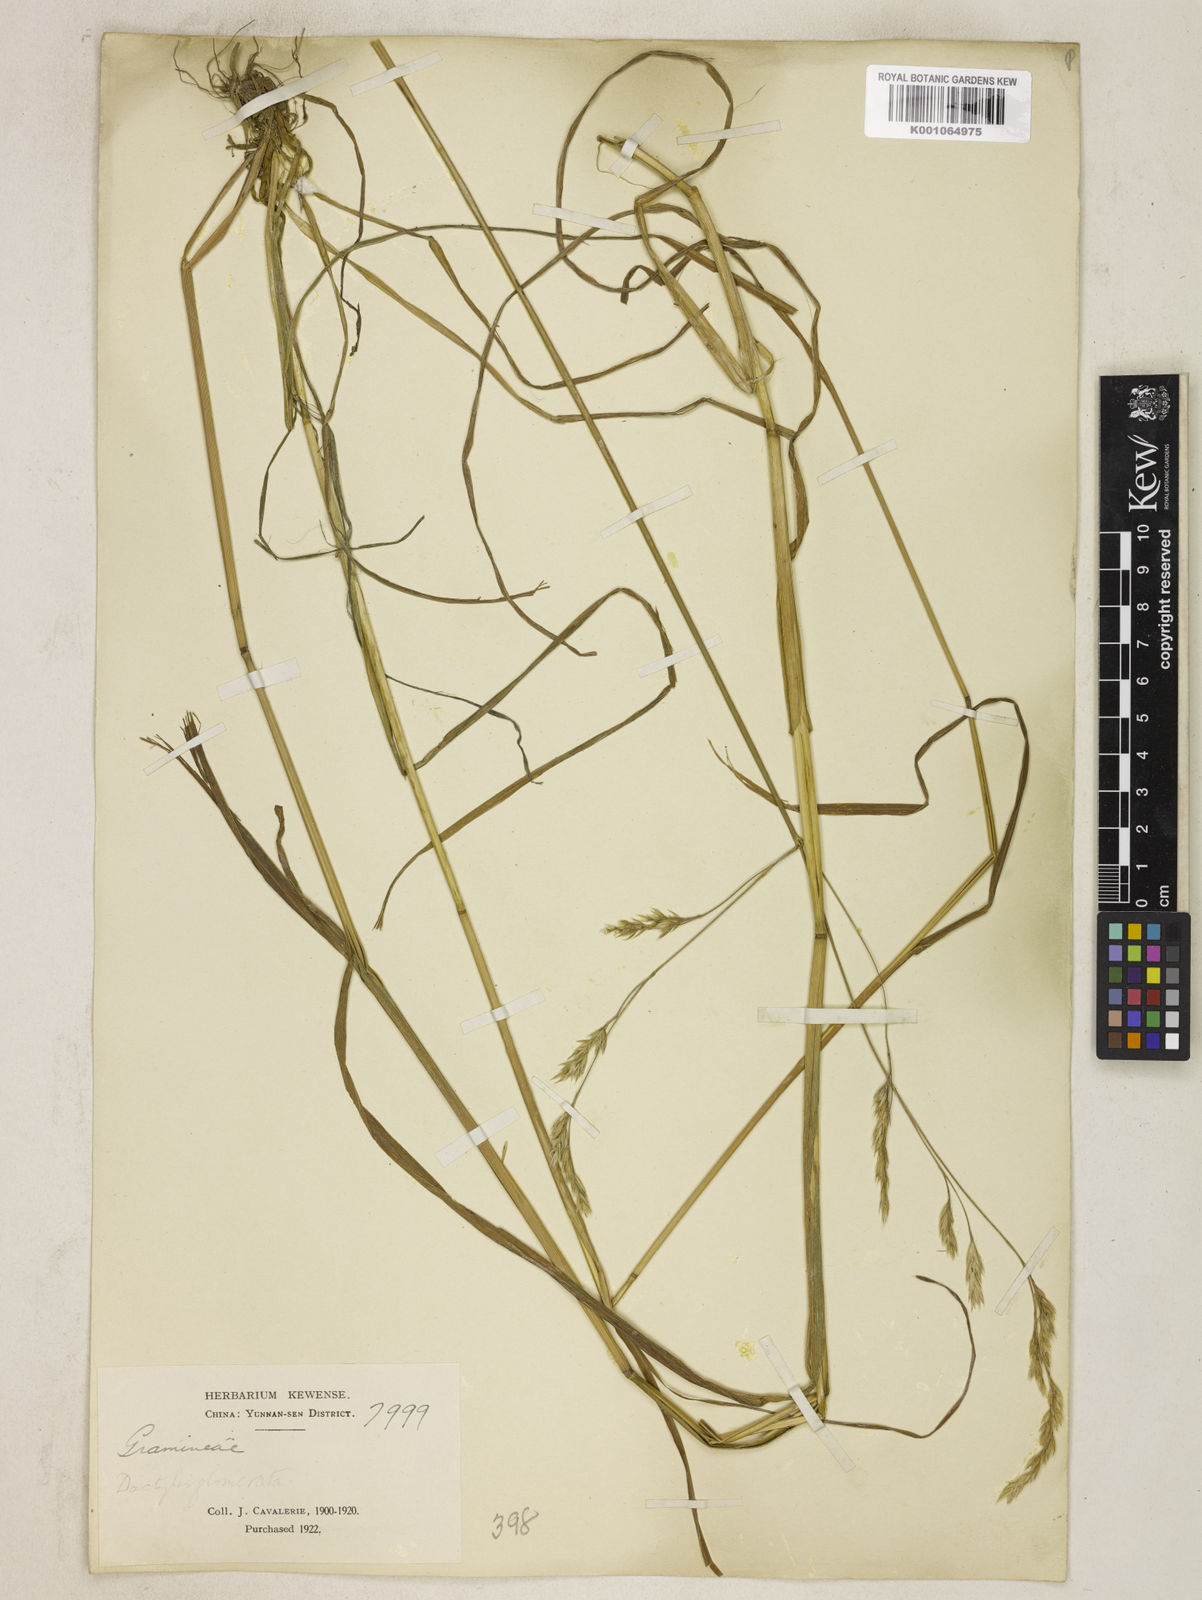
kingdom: Plantae
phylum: Tracheophyta
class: Liliopsida
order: Poales
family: Poaceae
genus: Dactylis
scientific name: Dactylis glomerata
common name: Orchardgrass
